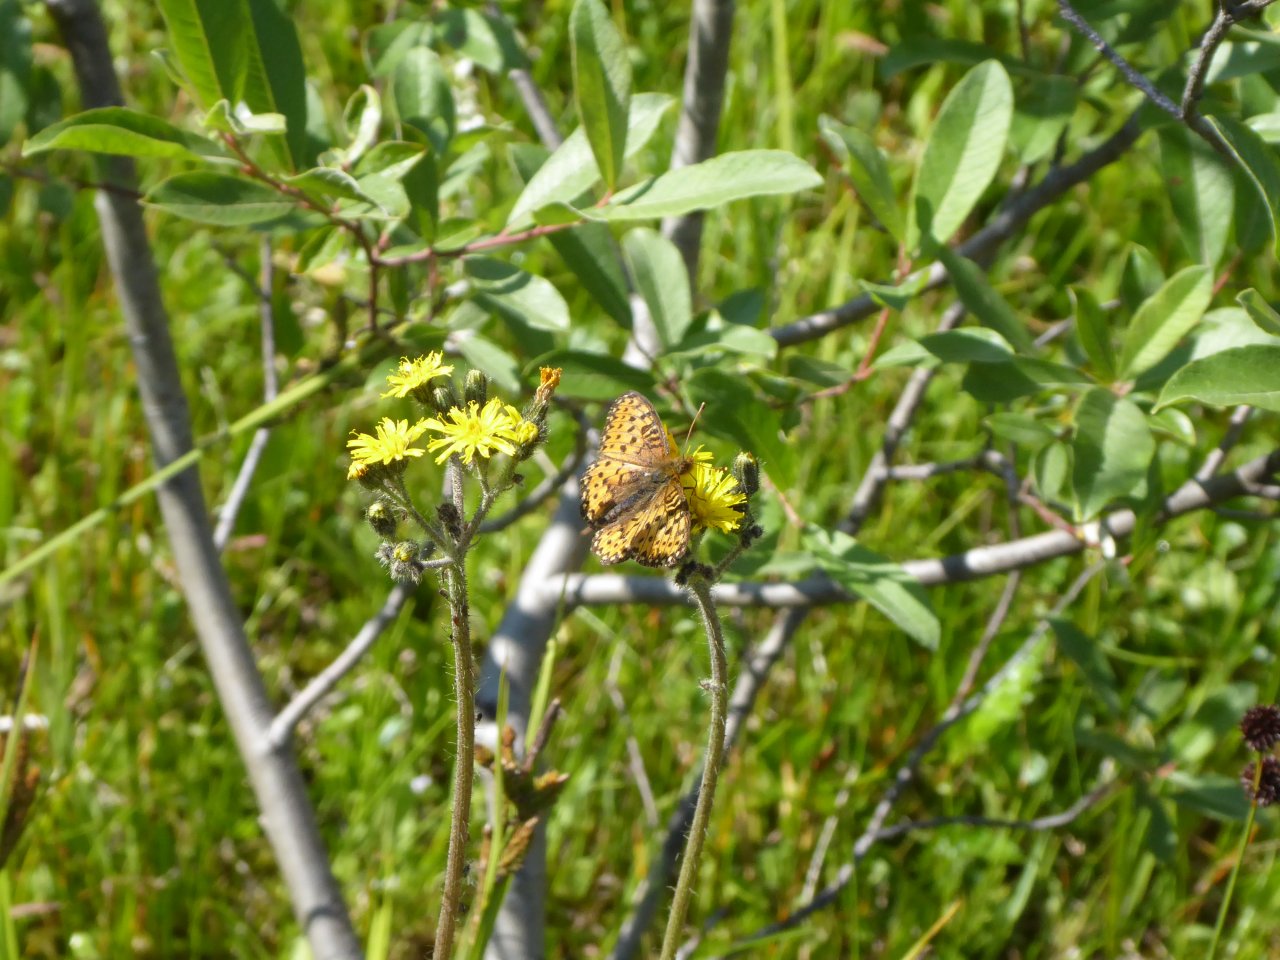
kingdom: Animalia
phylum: Arthropoda
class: Insecta
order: Lepidoptera
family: Nymphalidae
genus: Boloria
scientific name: Boloria freija
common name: Freija Fritillary
